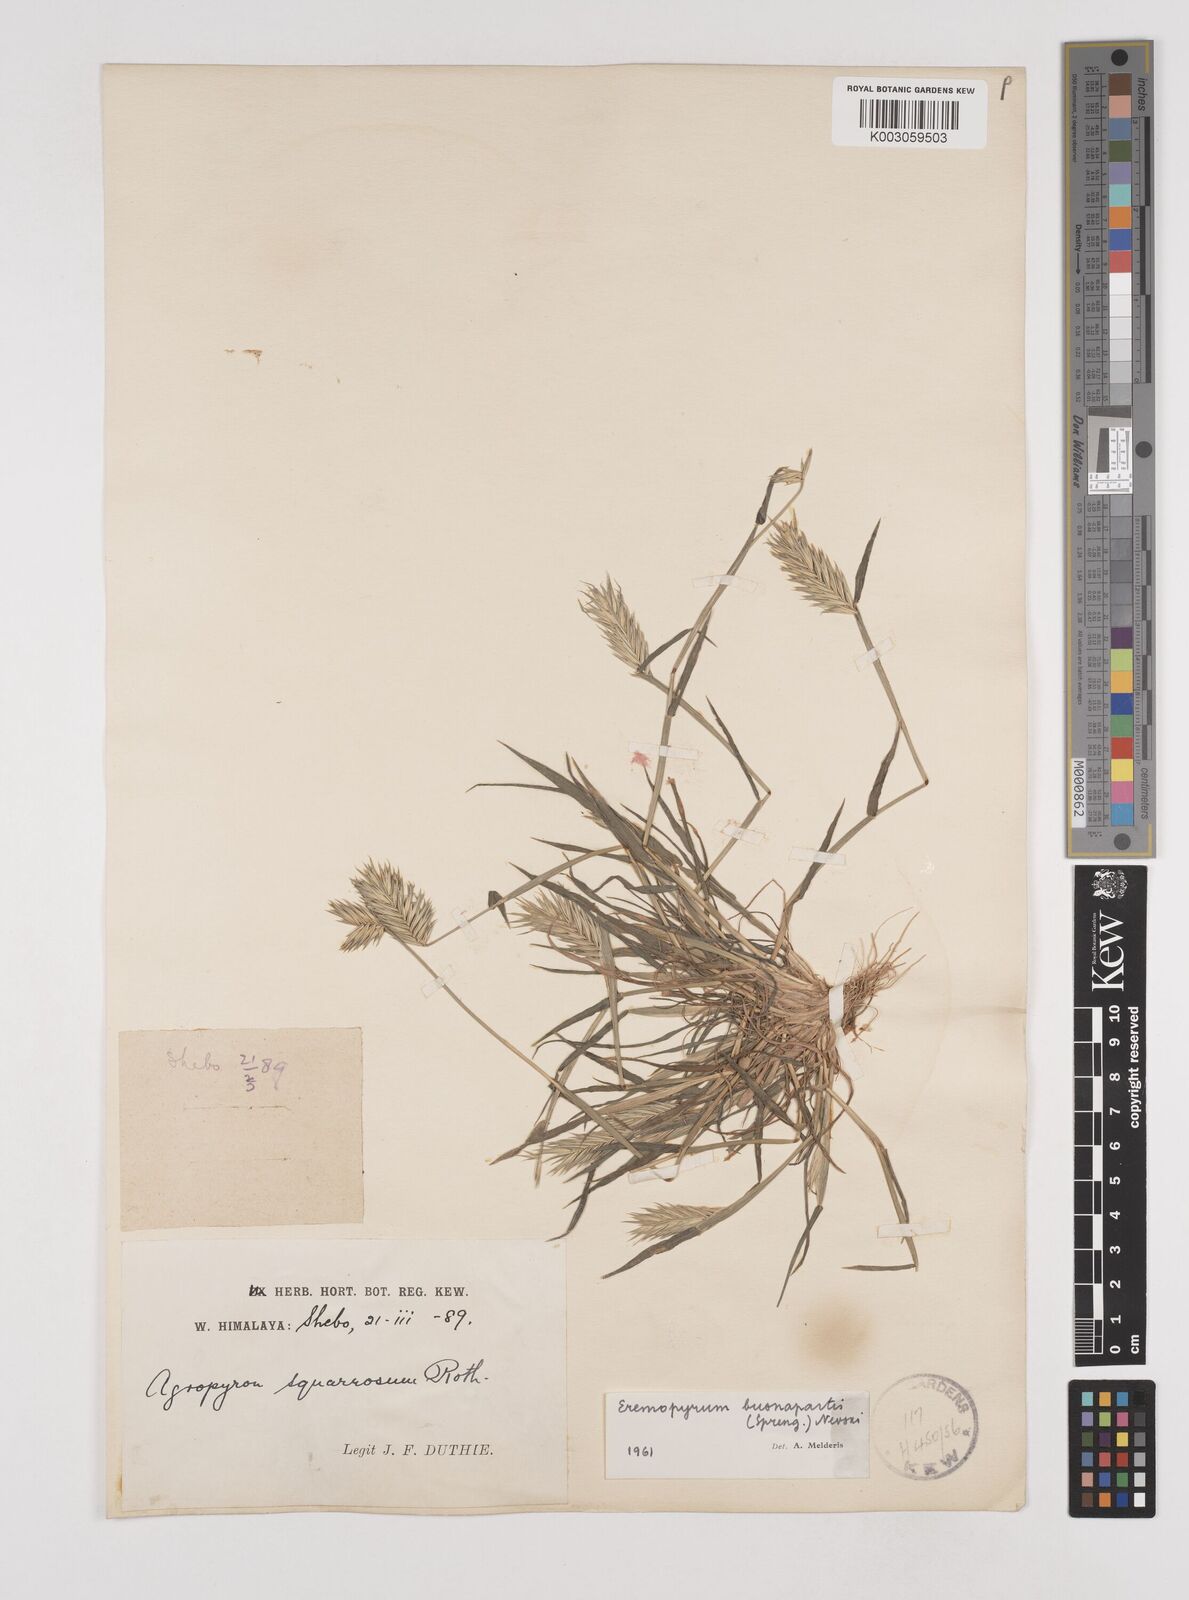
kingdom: Plantae
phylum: Tracheophyta
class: Liliopsida
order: Poales
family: Poaceae
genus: Eremopyrum
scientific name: Eremopyrum bonaepartis
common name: Tapertip false wheatgrass
